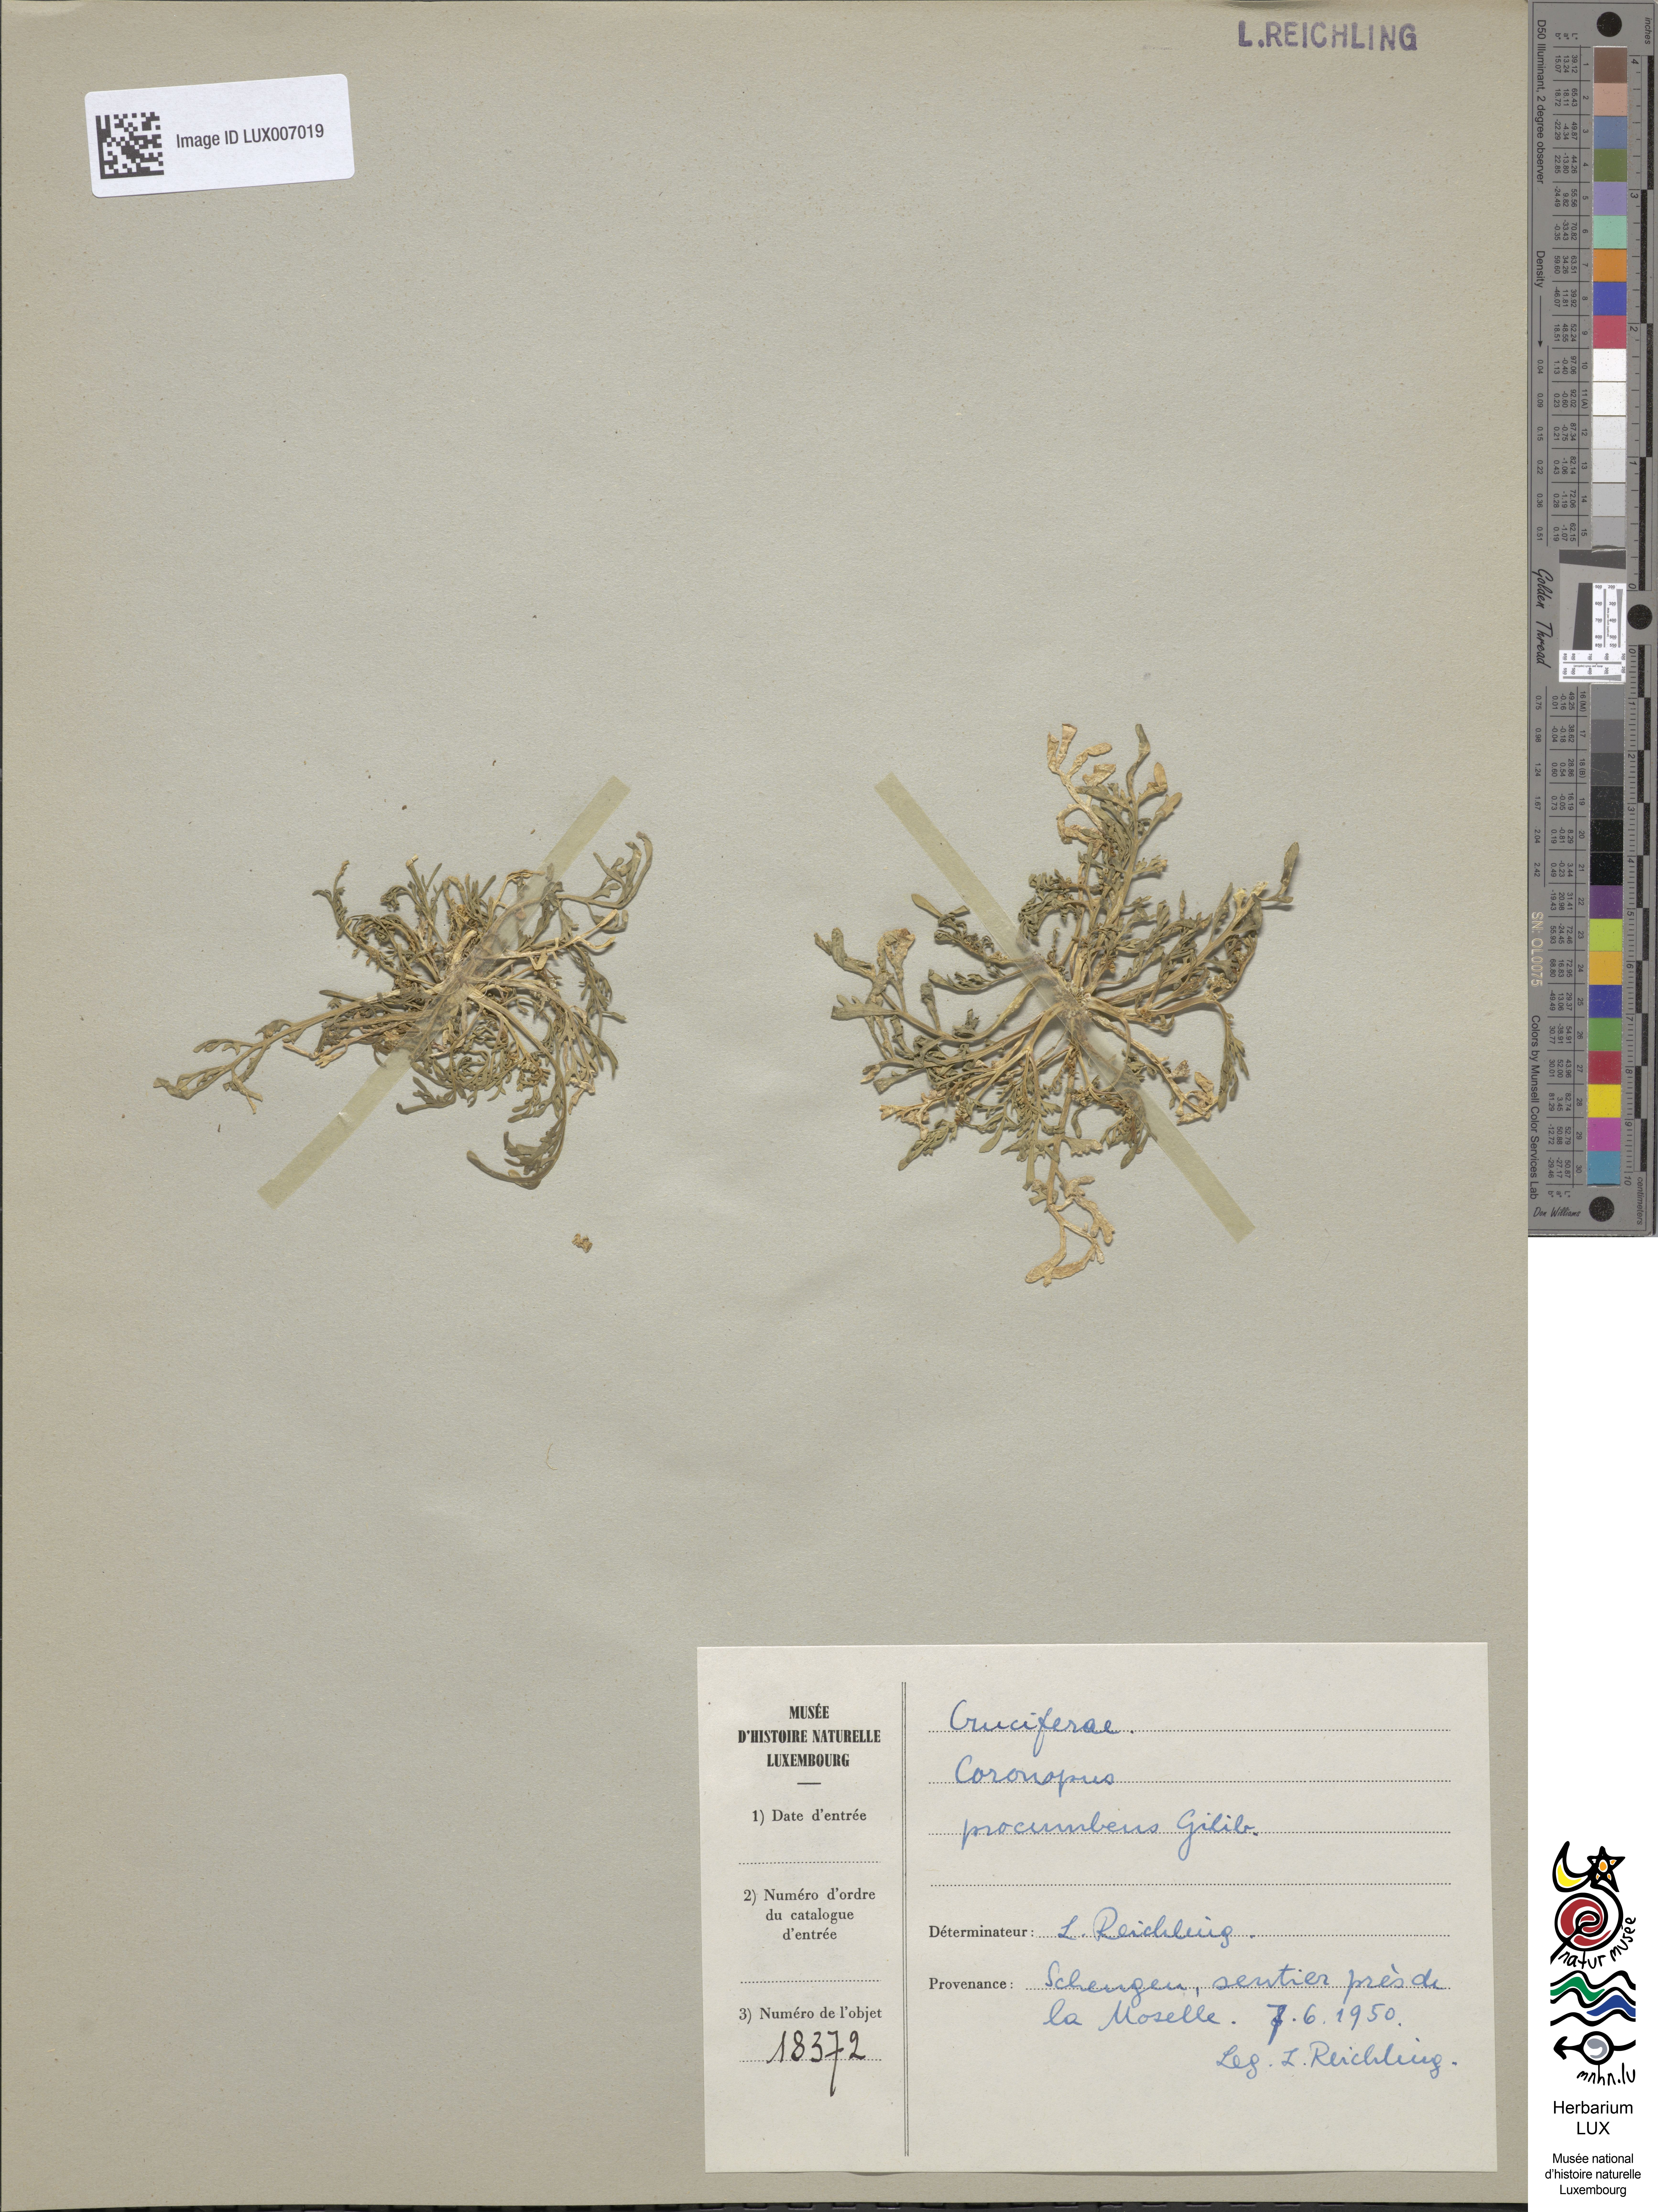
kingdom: Plantae
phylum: Tracheophyta
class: Magnoliopsida
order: Brassicales
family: Brassicaceae
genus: Lepidium
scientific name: Lepidium coronopus
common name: Greater swinecress
